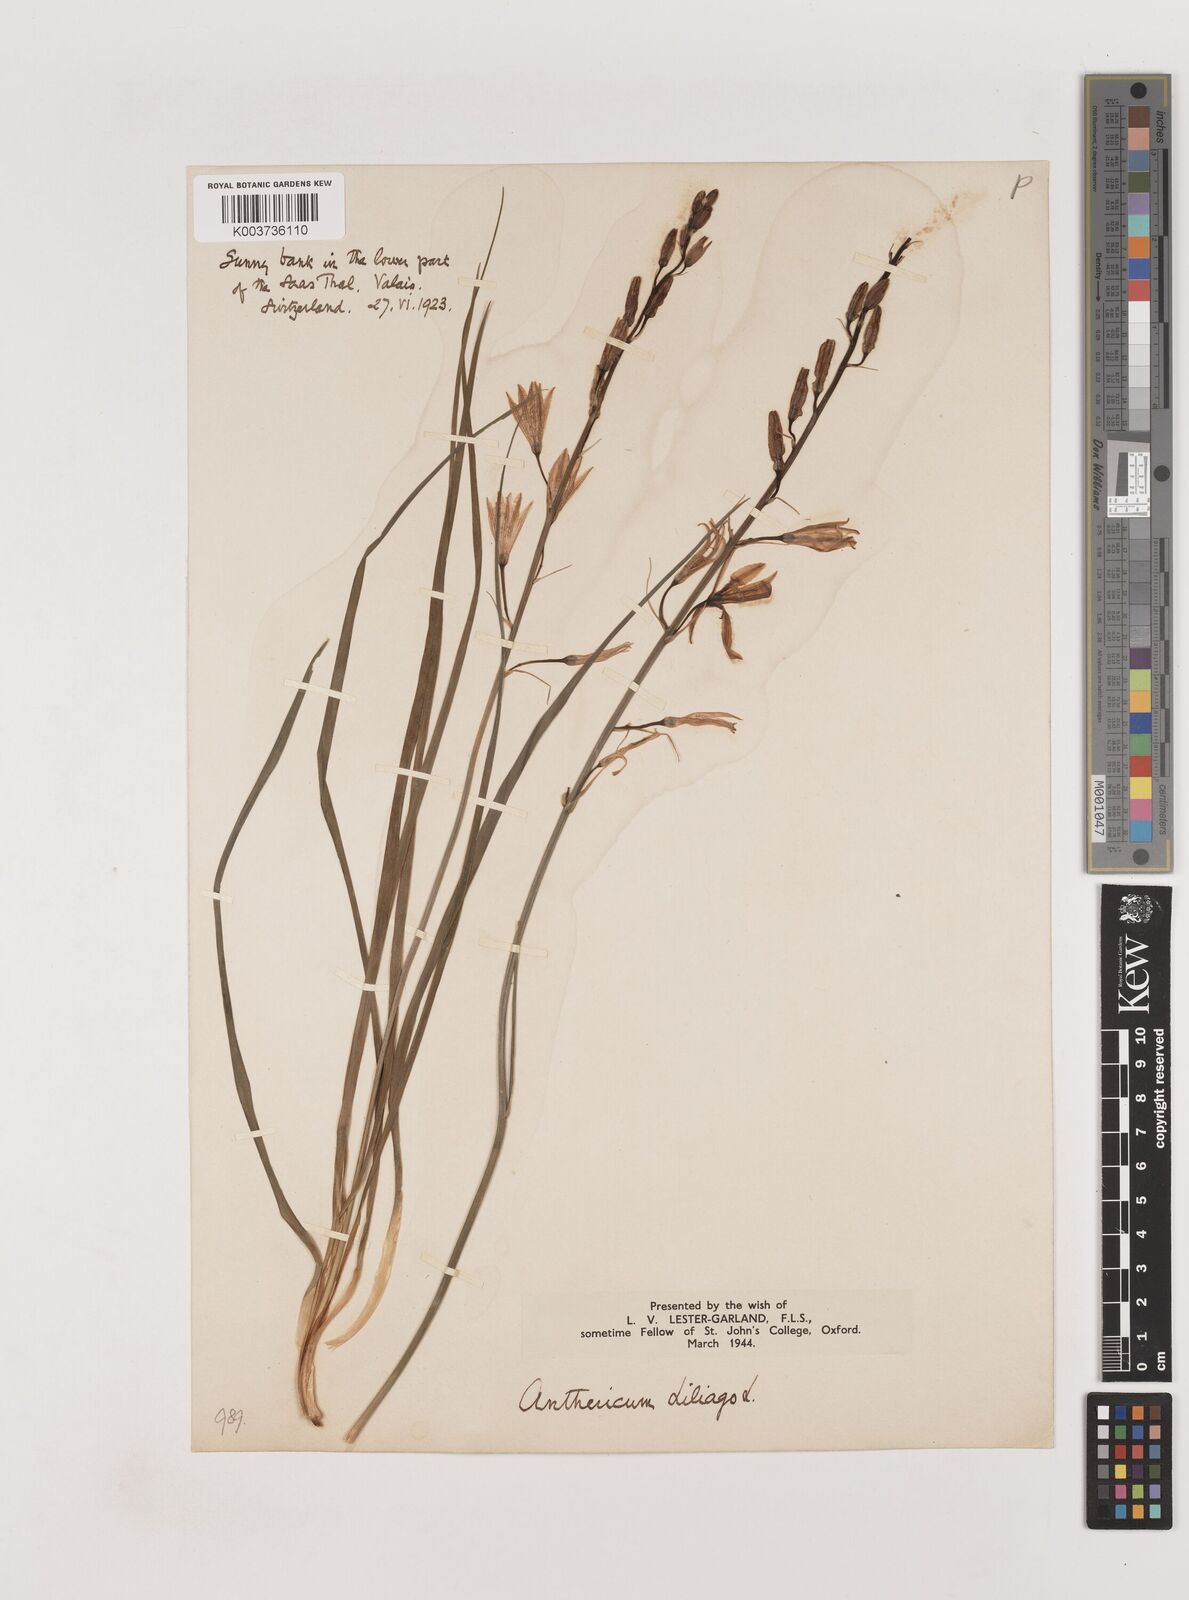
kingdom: Plantae
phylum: Tracheophyta
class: Liliopsida
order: Asparagales
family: Asparagaceae
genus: Anthericum
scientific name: Anthericum liliago
